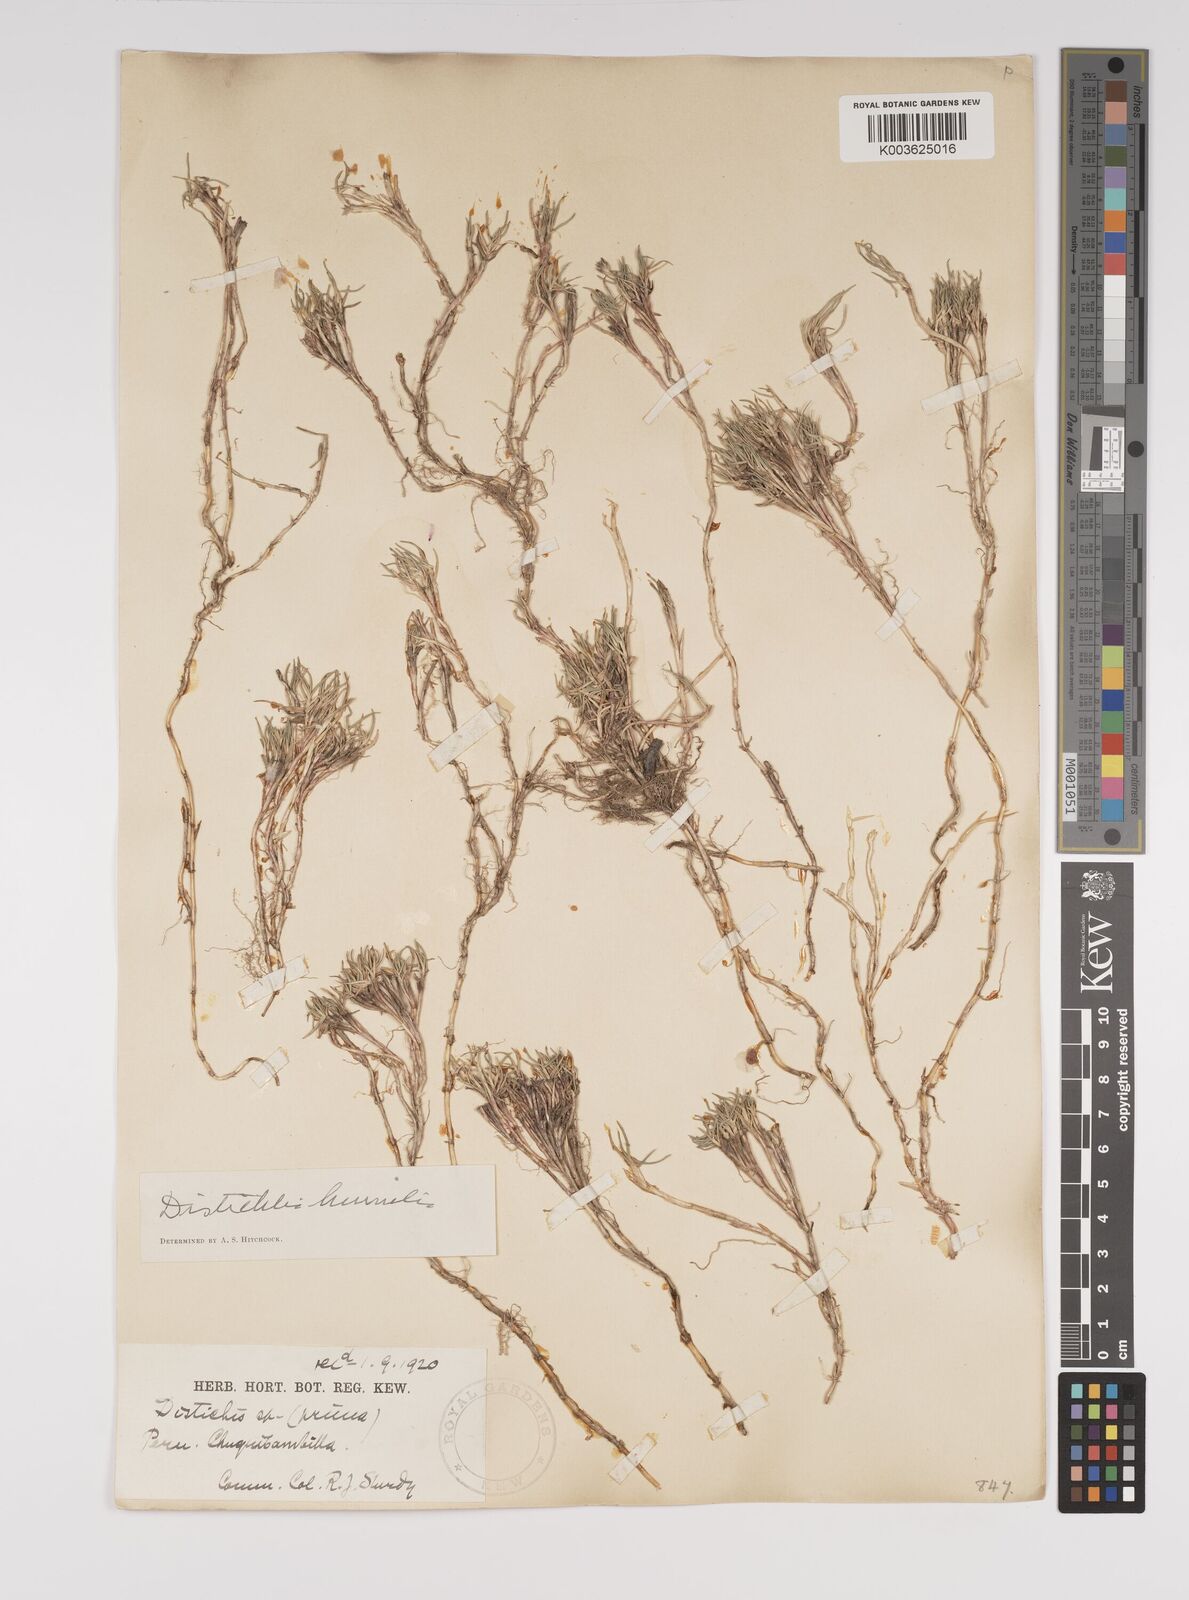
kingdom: Plantae
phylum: Tracheophyta
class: Liliopsida
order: Poales
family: Poaceae
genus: Distichlis
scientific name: Distichlis humilis
